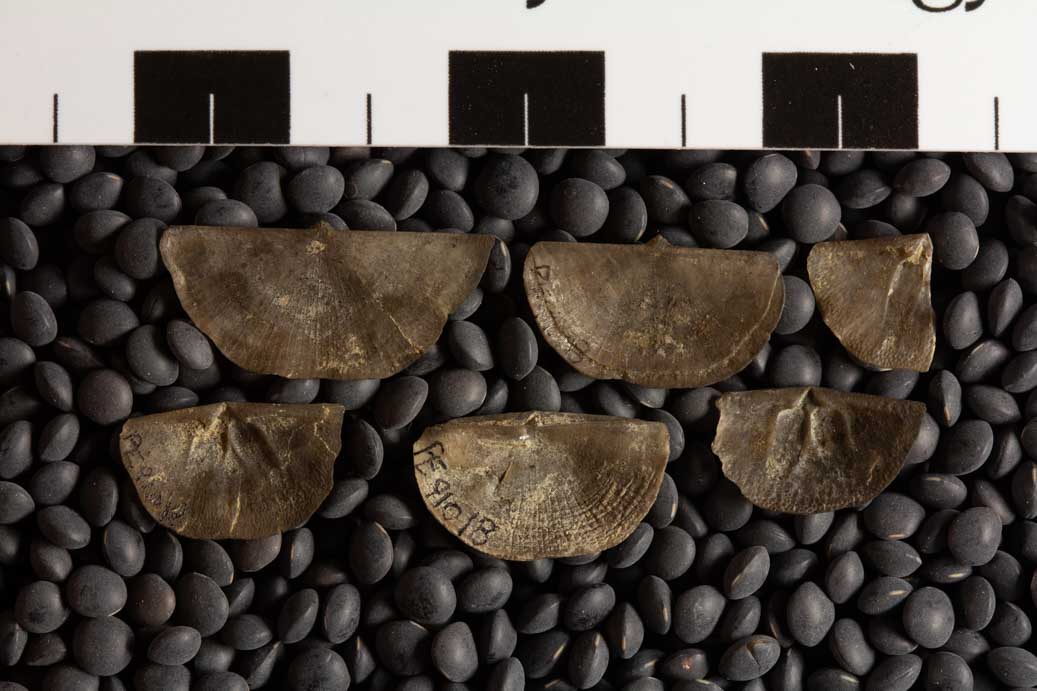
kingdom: Animalia
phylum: Brachiopoda
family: Sowerbyellidae
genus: Sowerbyella
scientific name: Sowerbyella Leptaena sericea
